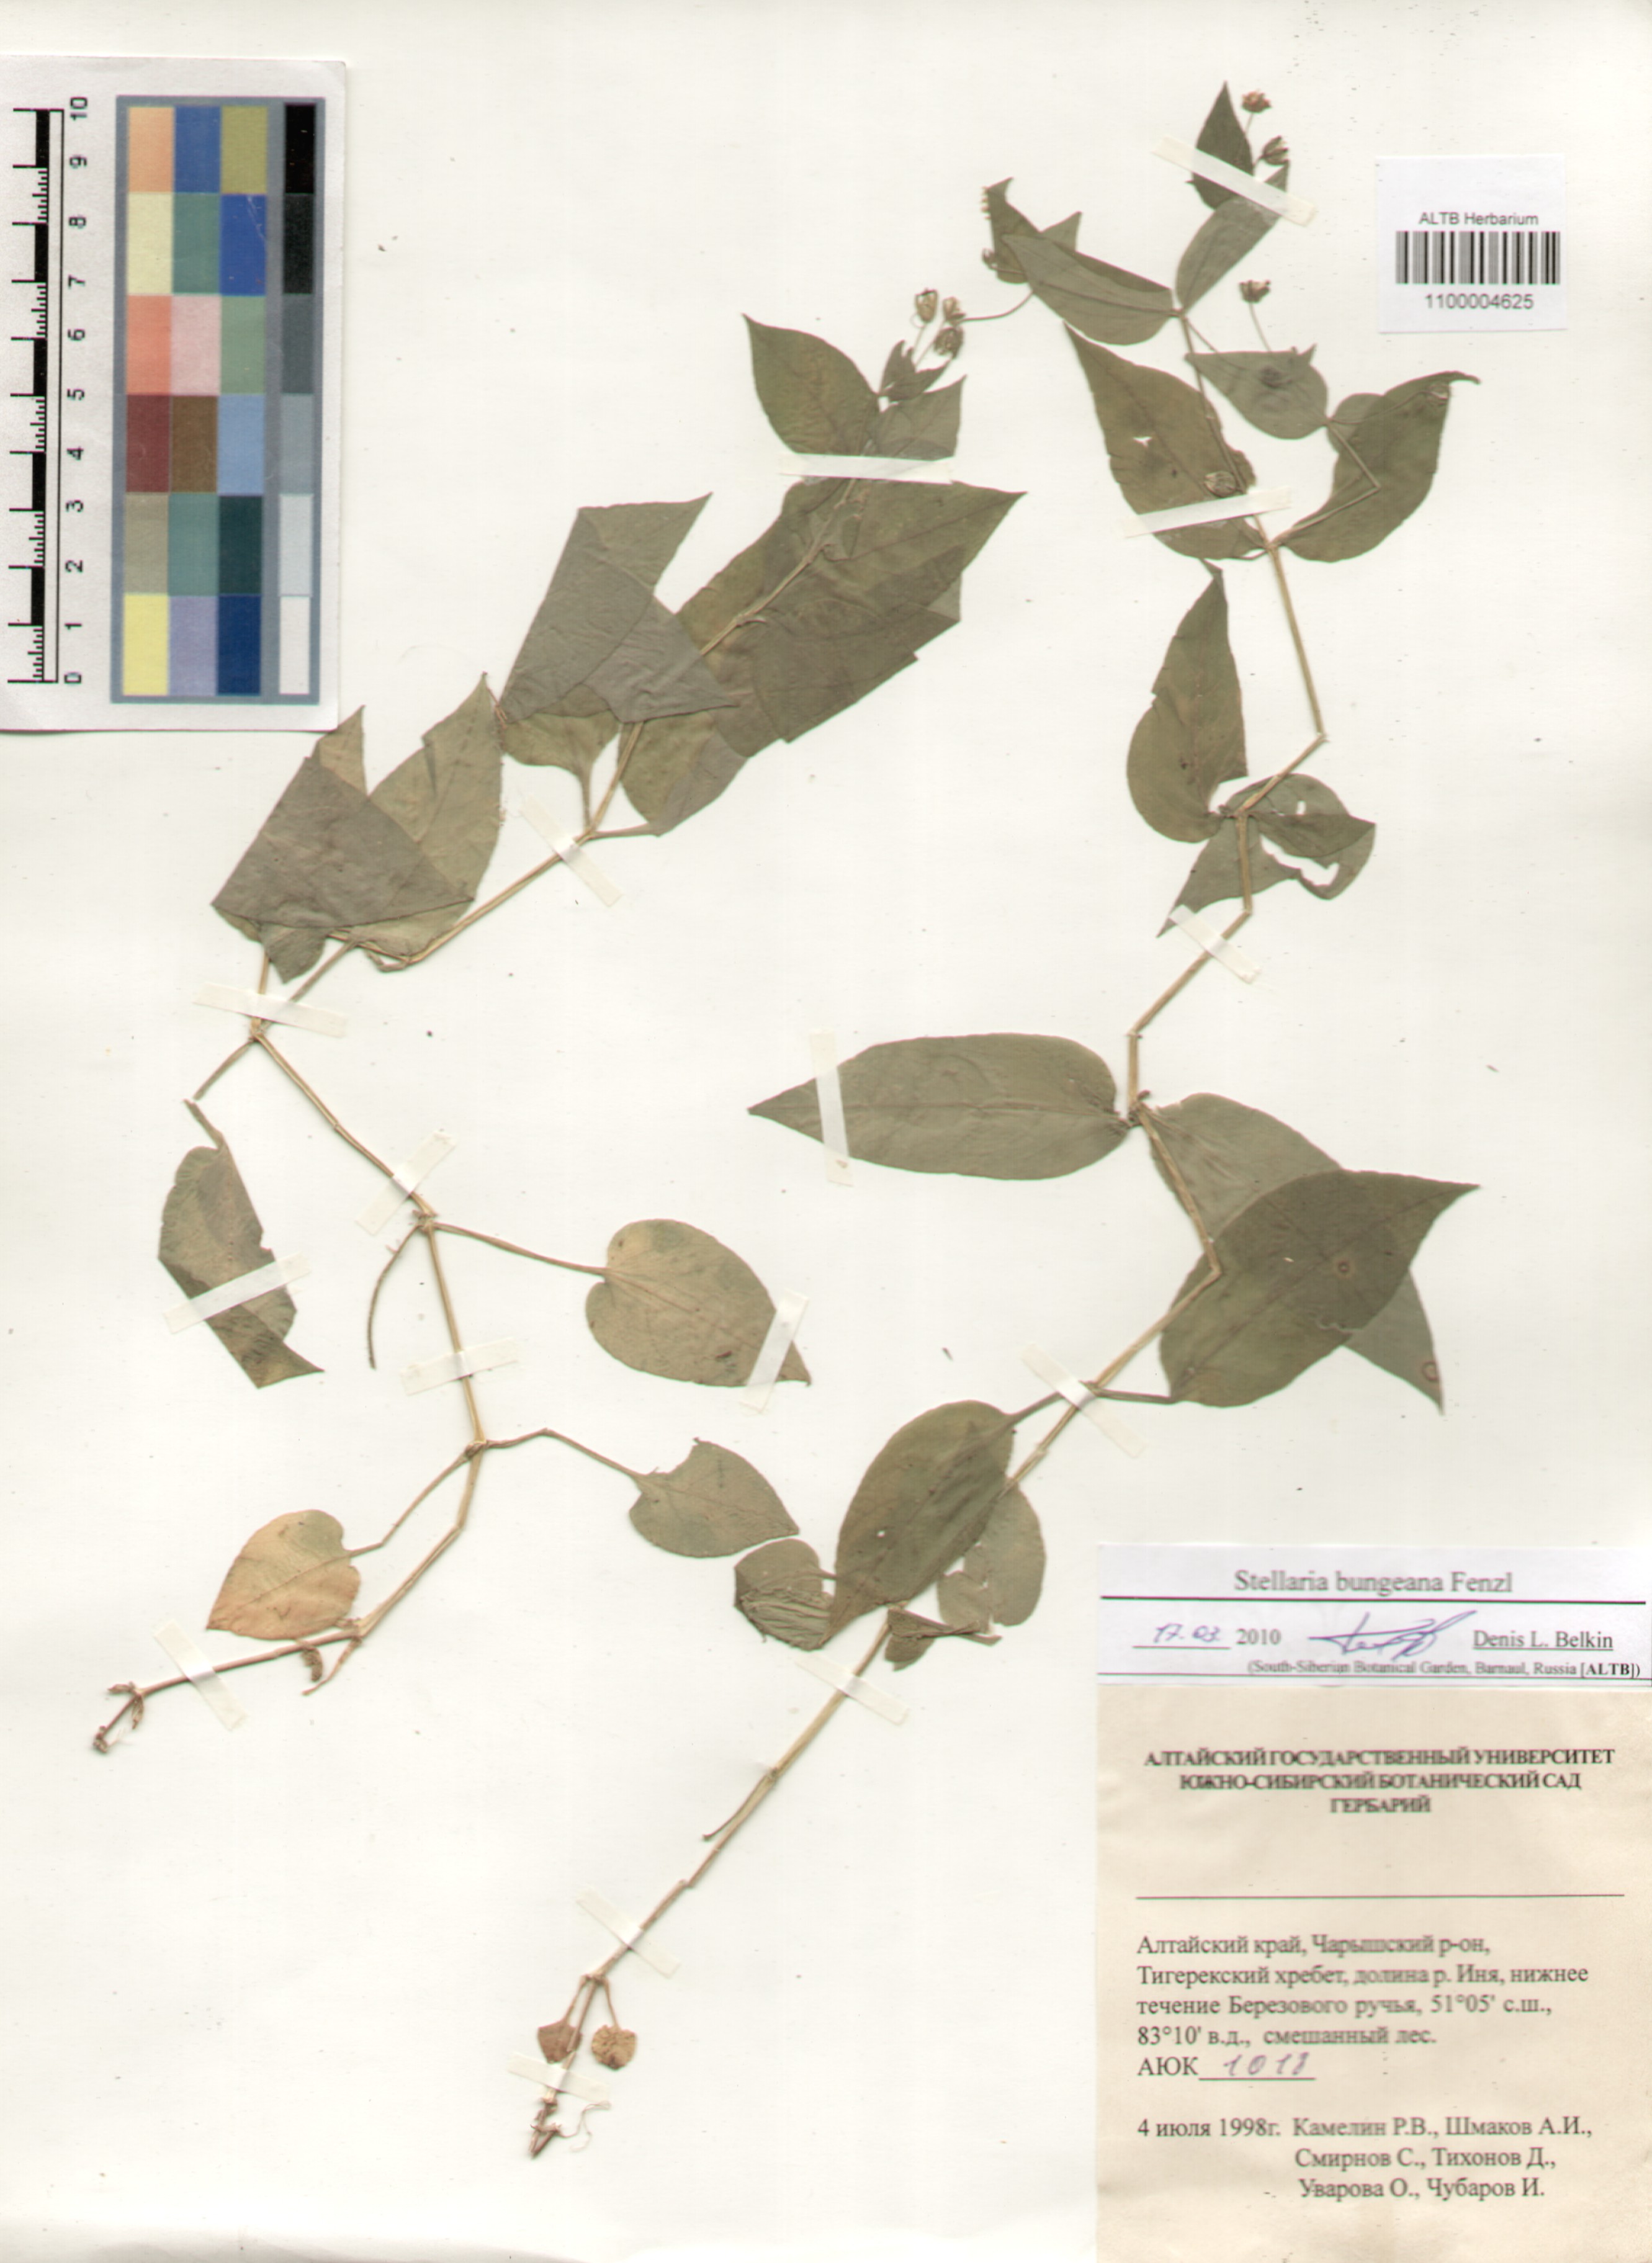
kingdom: Plantae
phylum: Tracheophyta
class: Magnoliopsida
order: Caryophyllales
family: Caryophyllaceae
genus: Stellaria
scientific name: Stellaria bungeana
